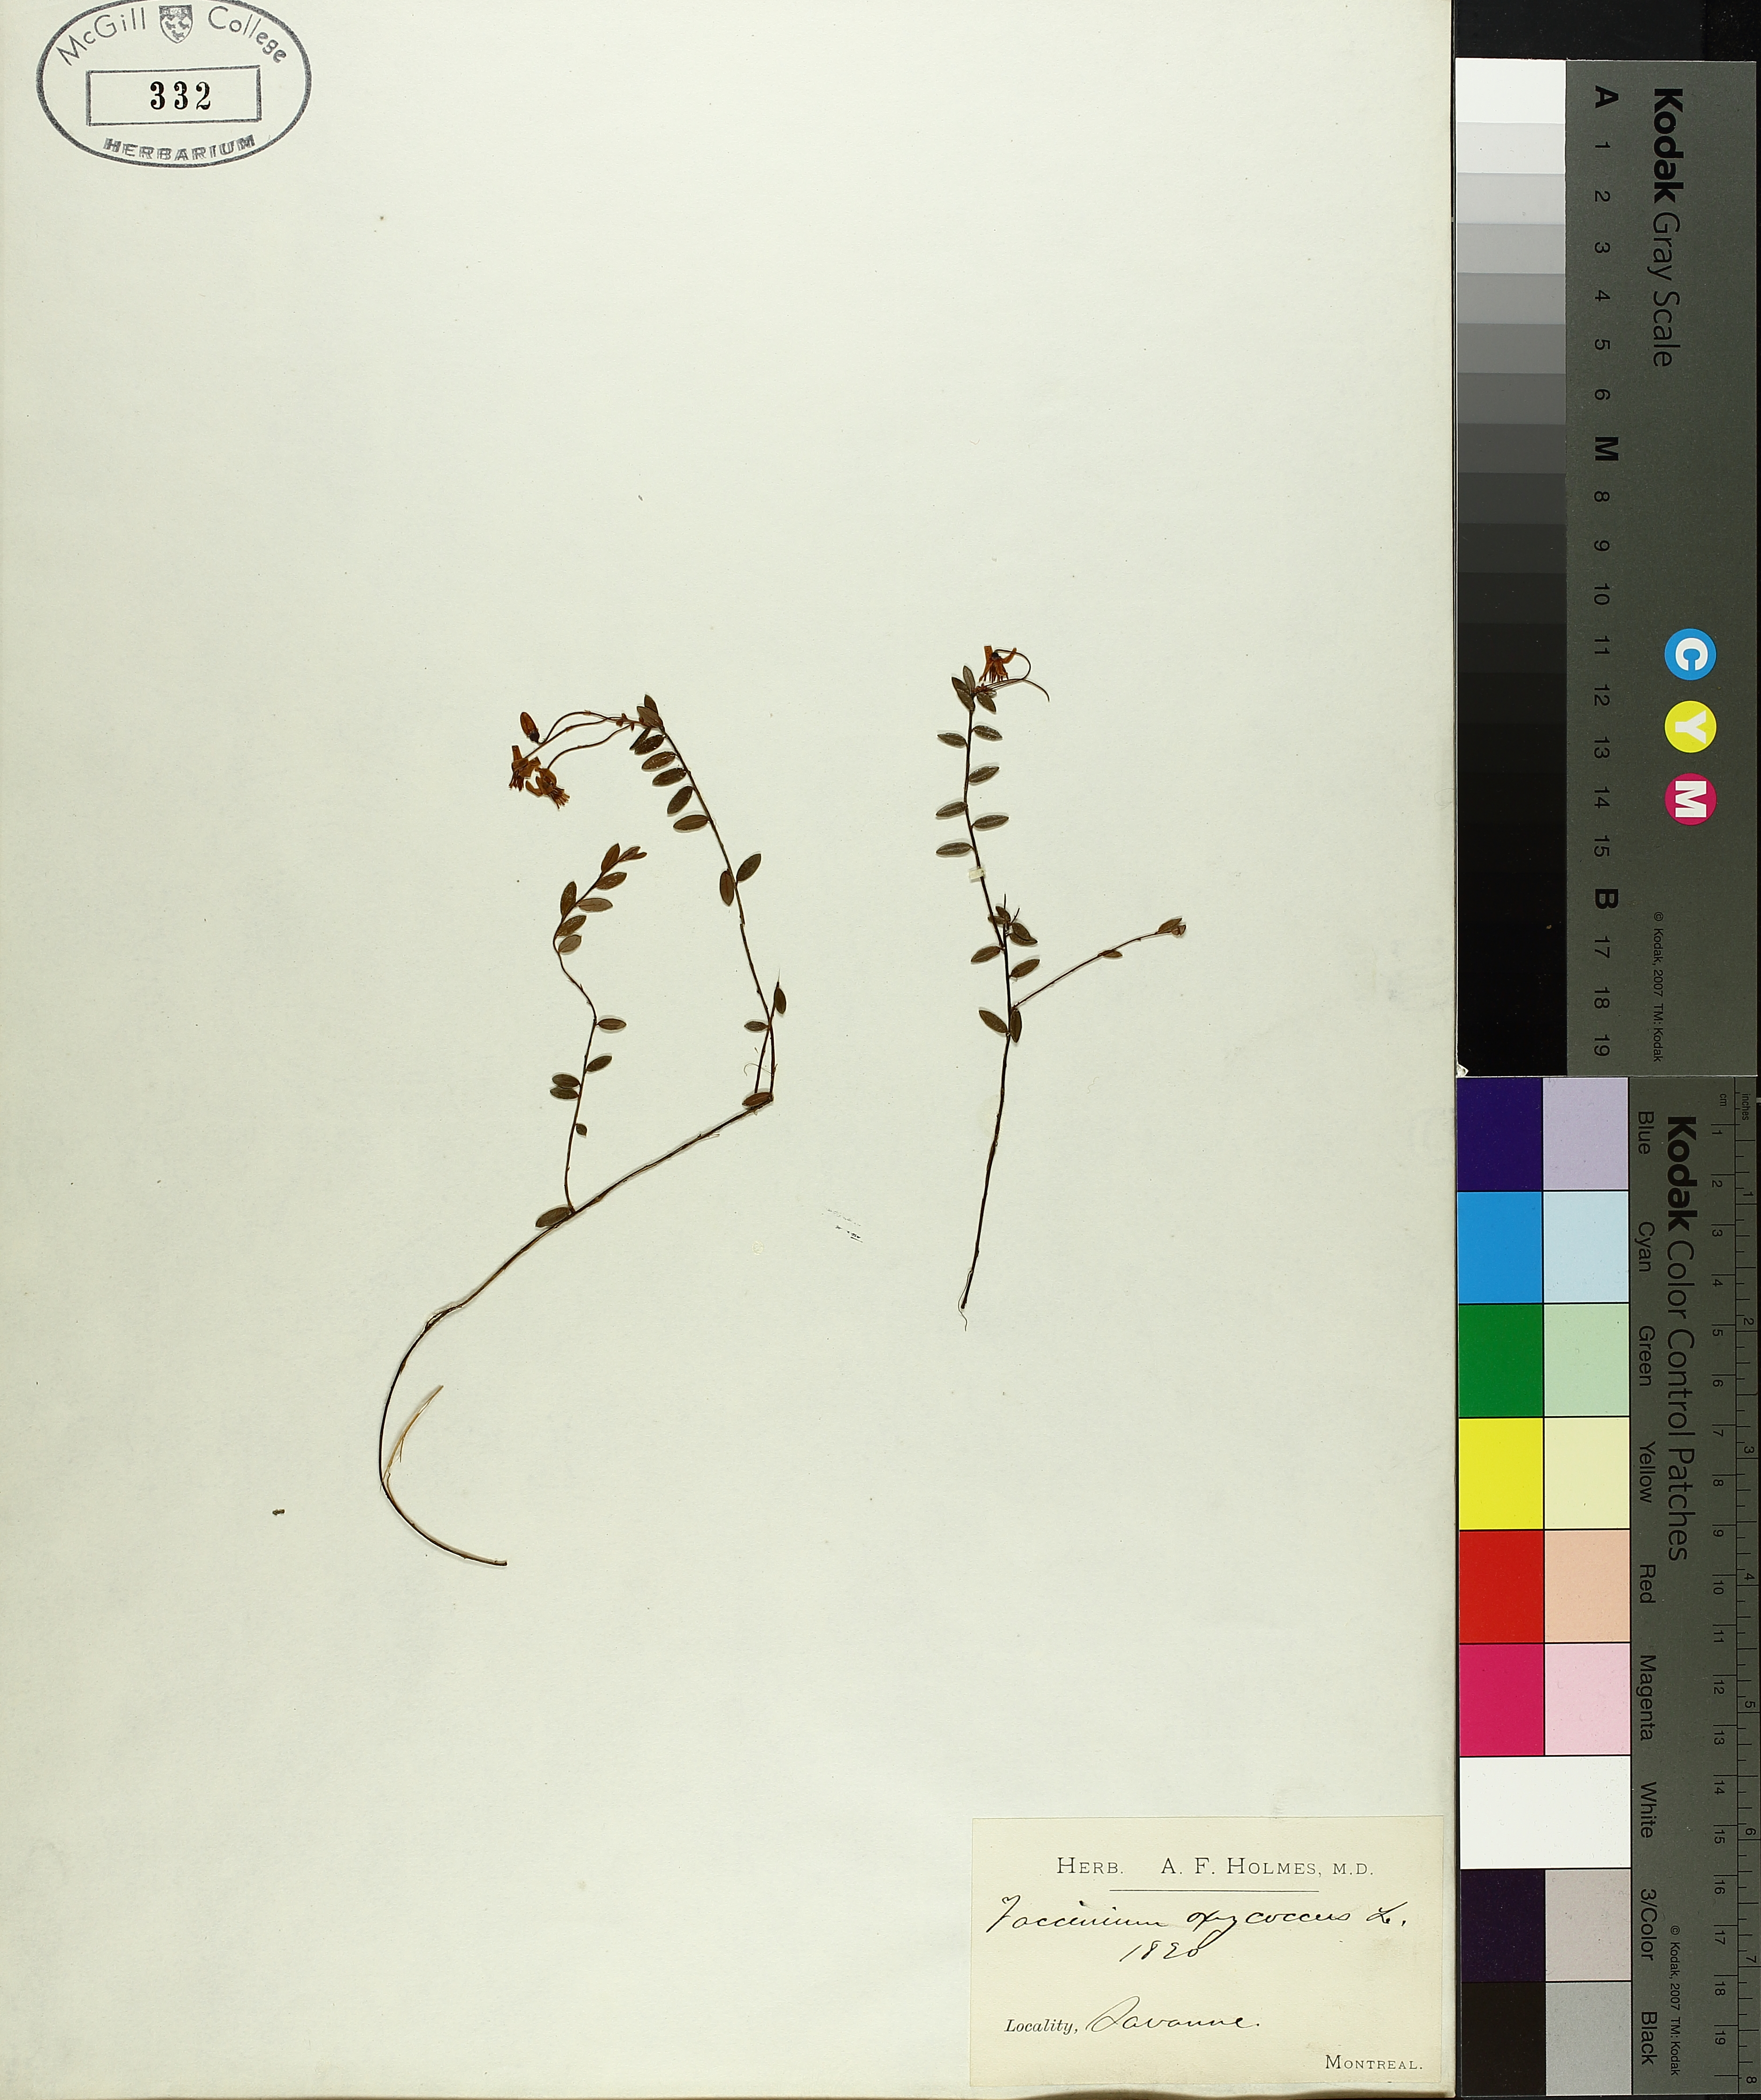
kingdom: Plantae
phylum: Tracheophyta
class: Magnoliopsida
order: Ericales
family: Ericaceae
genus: Vaccinium
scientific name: Vaccinium oxycoccos
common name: Cranberry
